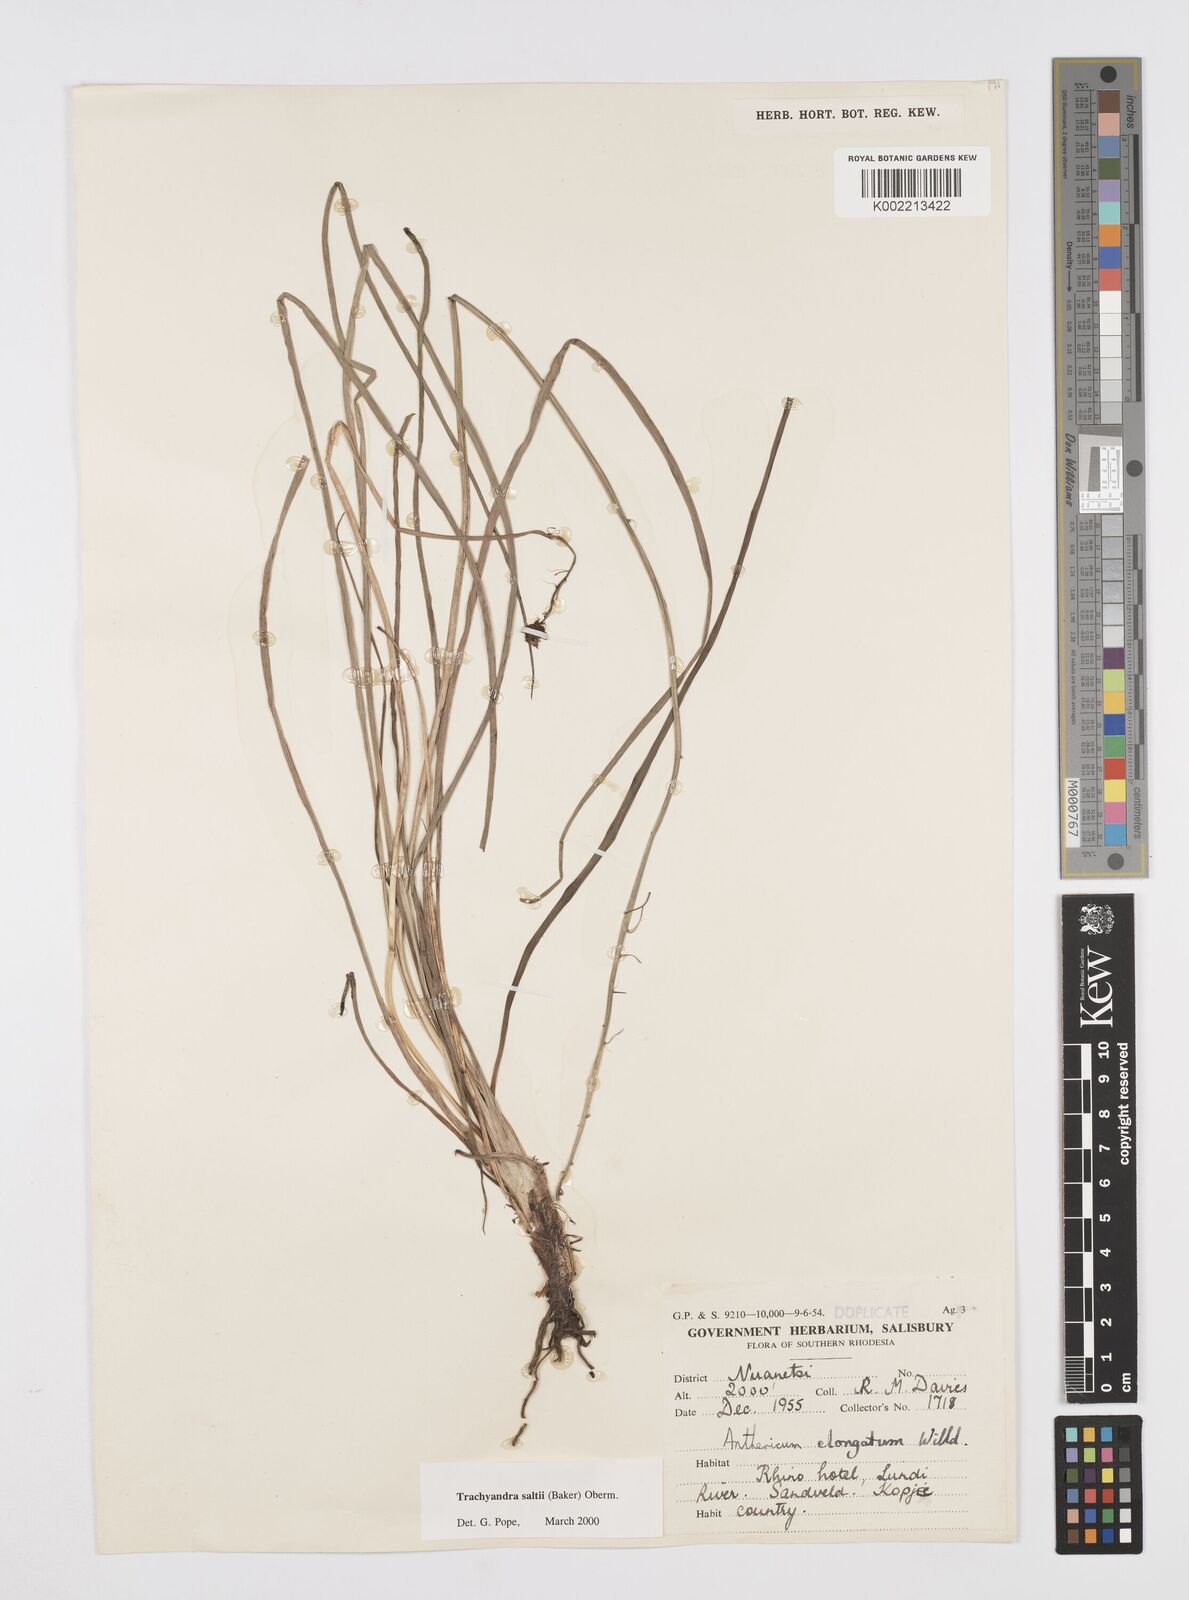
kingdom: Plantae
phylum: Tracheophyta
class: Liliopsida
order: Asparagales
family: Asphodelaceae
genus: Trachyandra
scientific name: Trachyandra saltii
